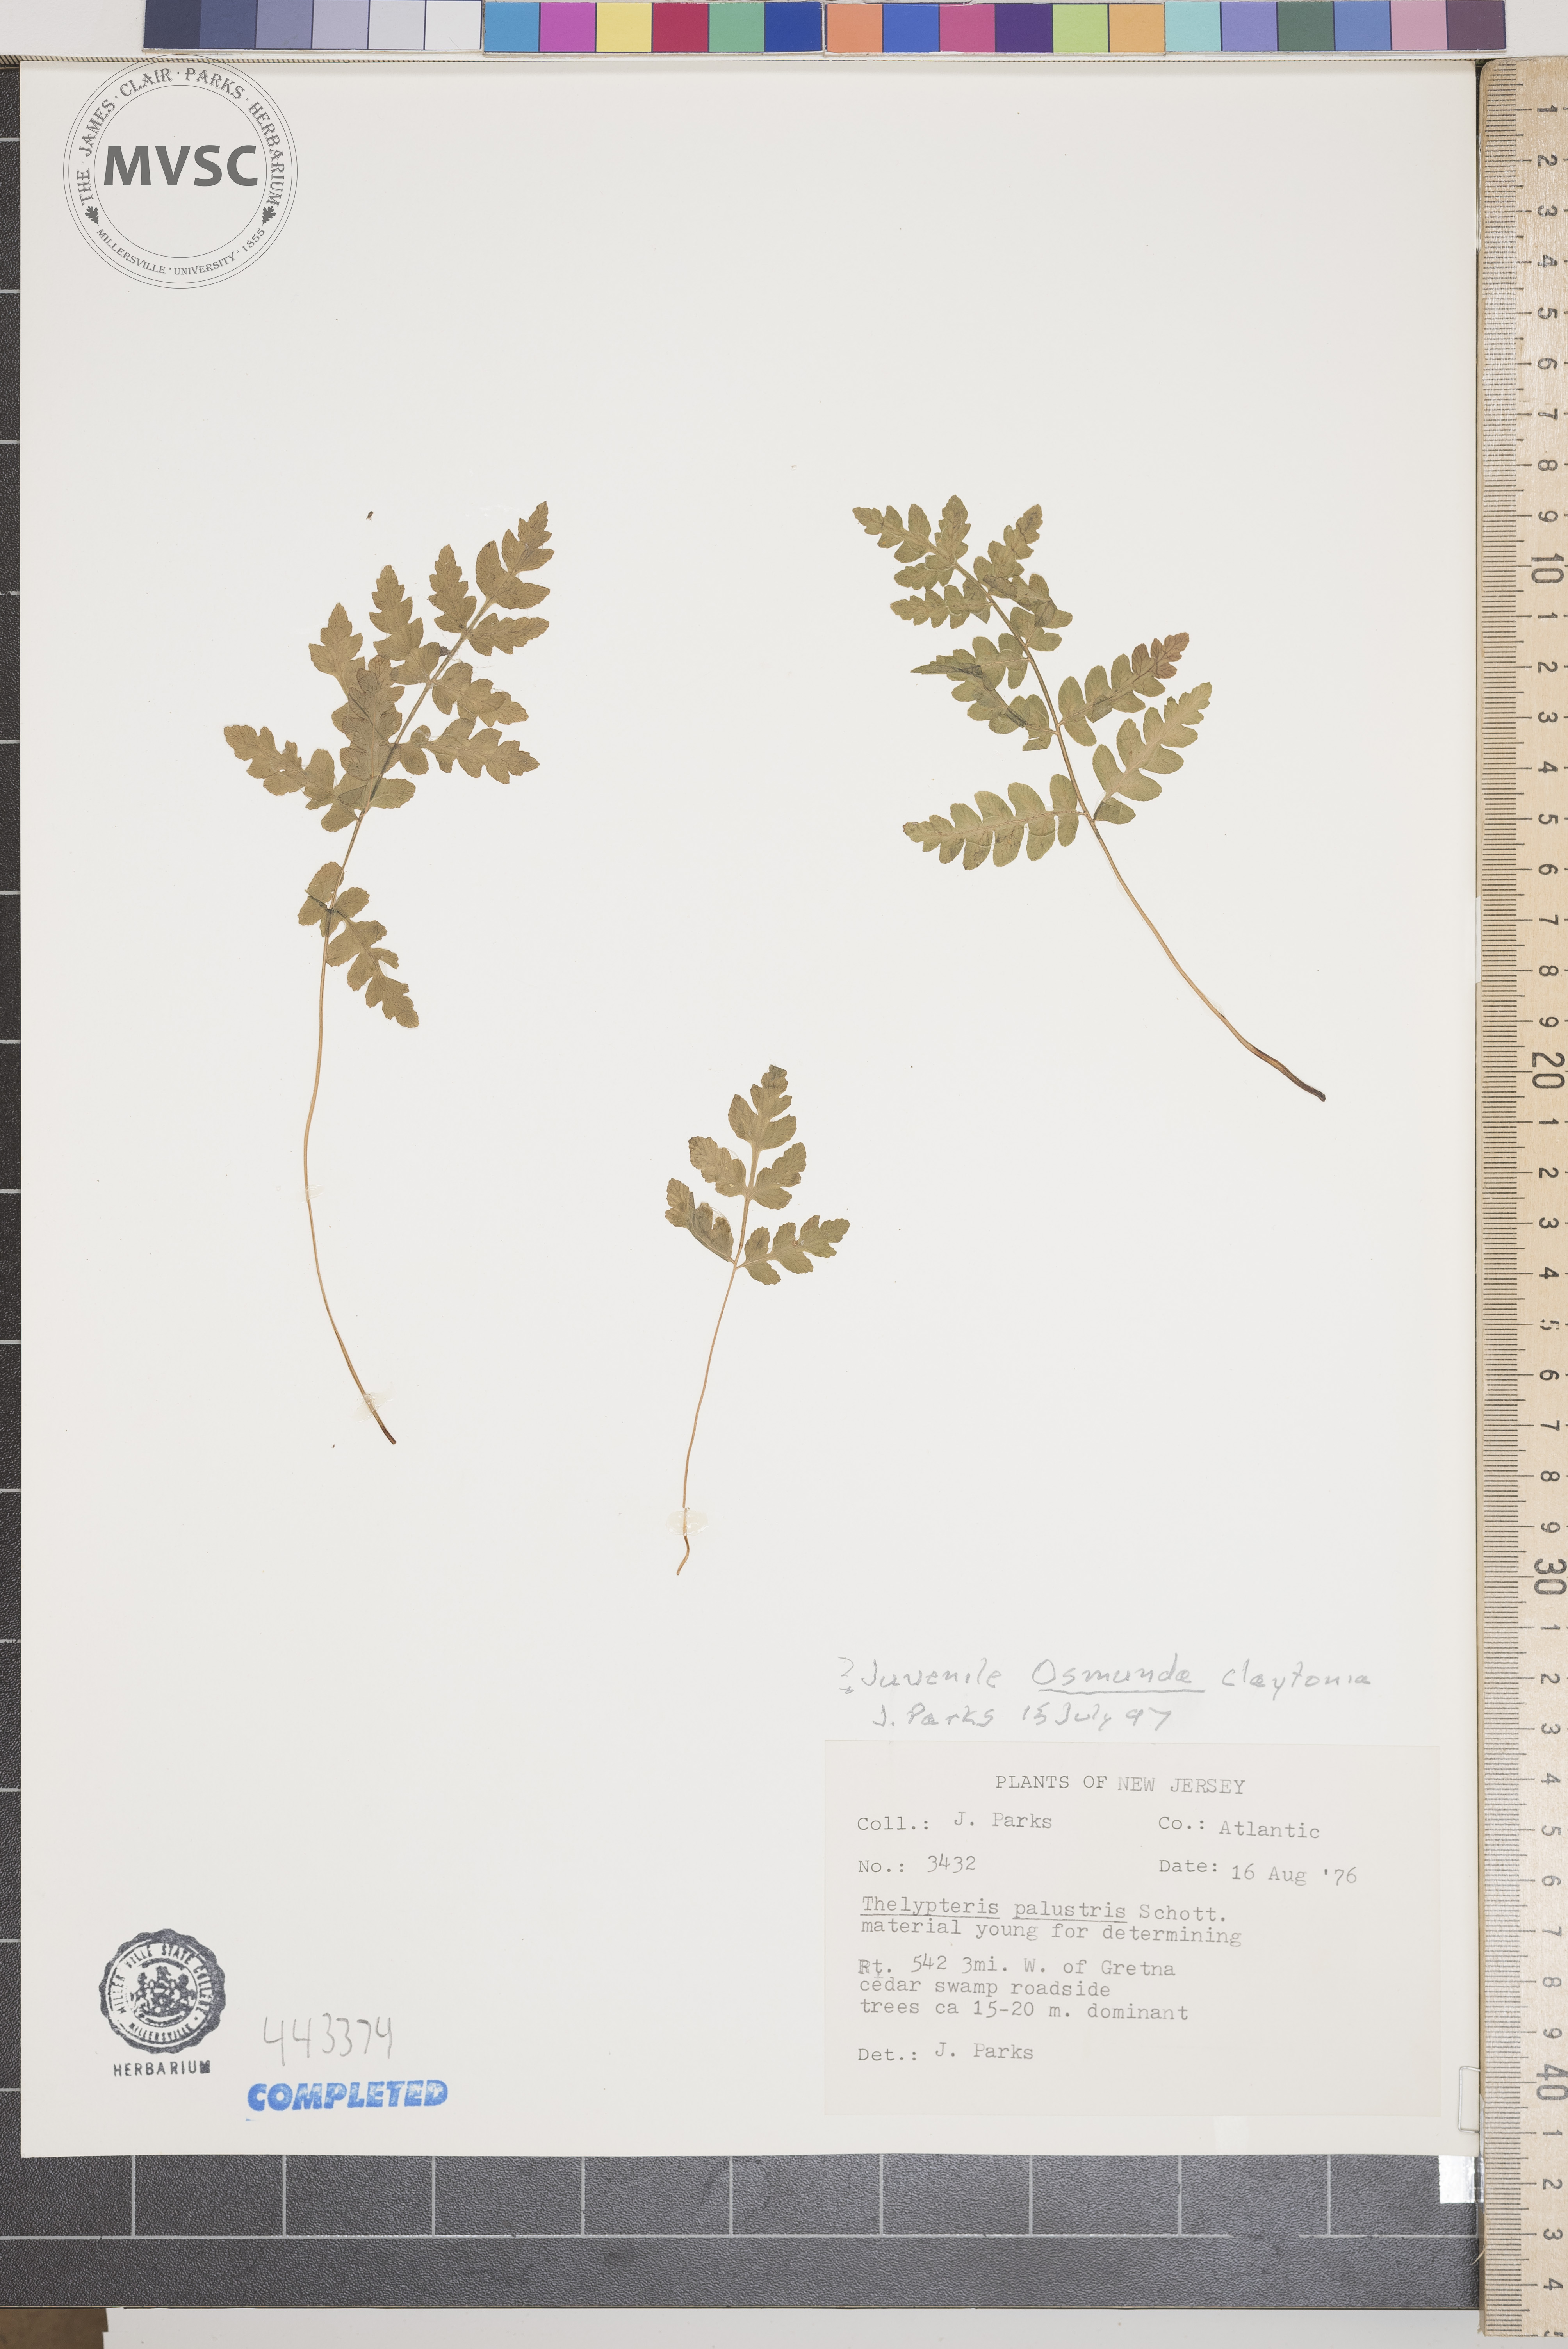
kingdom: Plantae
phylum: Tracheophyta
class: Polypodiopsida
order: Osmundales
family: Osmundaceae
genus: Claytosmunda
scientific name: Claytosmunda claytoniana
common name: Clayton's fern
